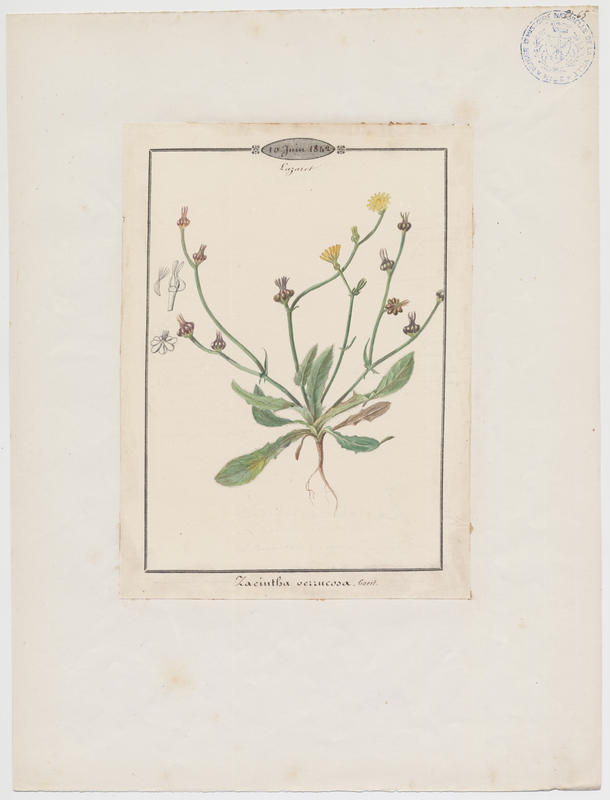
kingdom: Plantae
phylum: Tracheophyta
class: Magnoliopsida
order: Asterales
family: Asteraceae
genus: Crepis
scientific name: Crepis zacintha
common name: Striped hawksbeard
